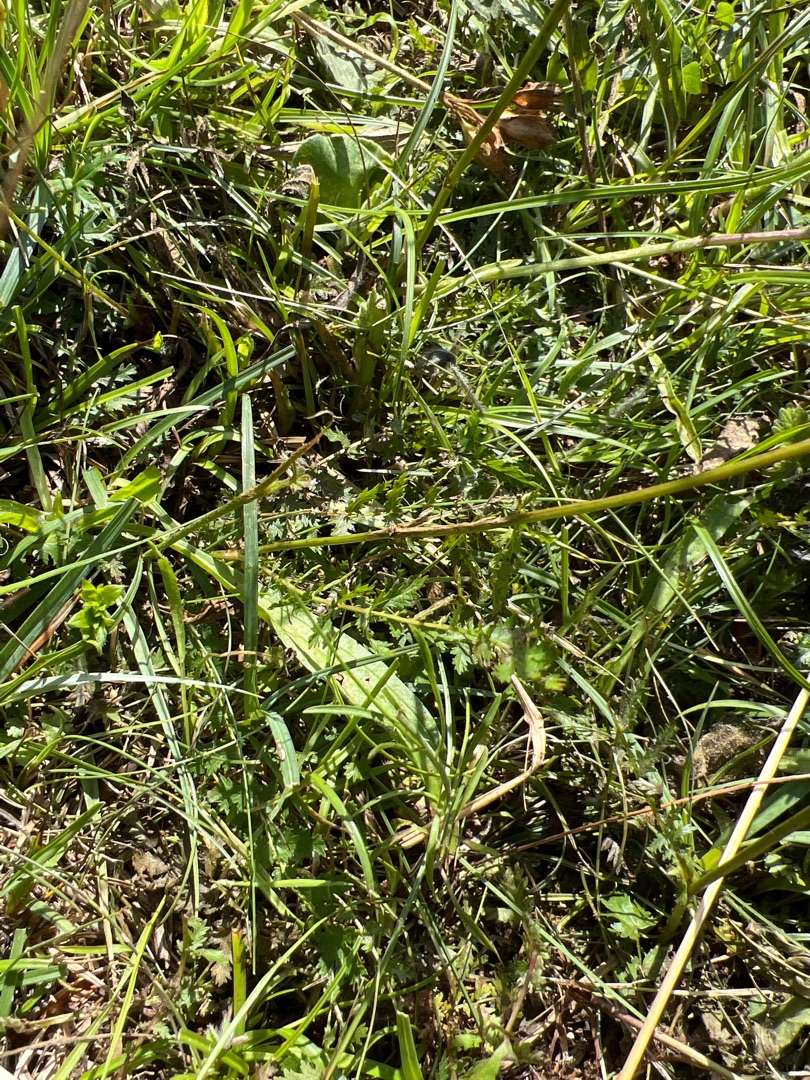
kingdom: Plantae
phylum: Tracheophyta
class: Magnoliopsida
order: Rosales
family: Rosaceae
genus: Filipendula
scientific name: Filipendula vulgaris
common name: Knoldet mjødurt
